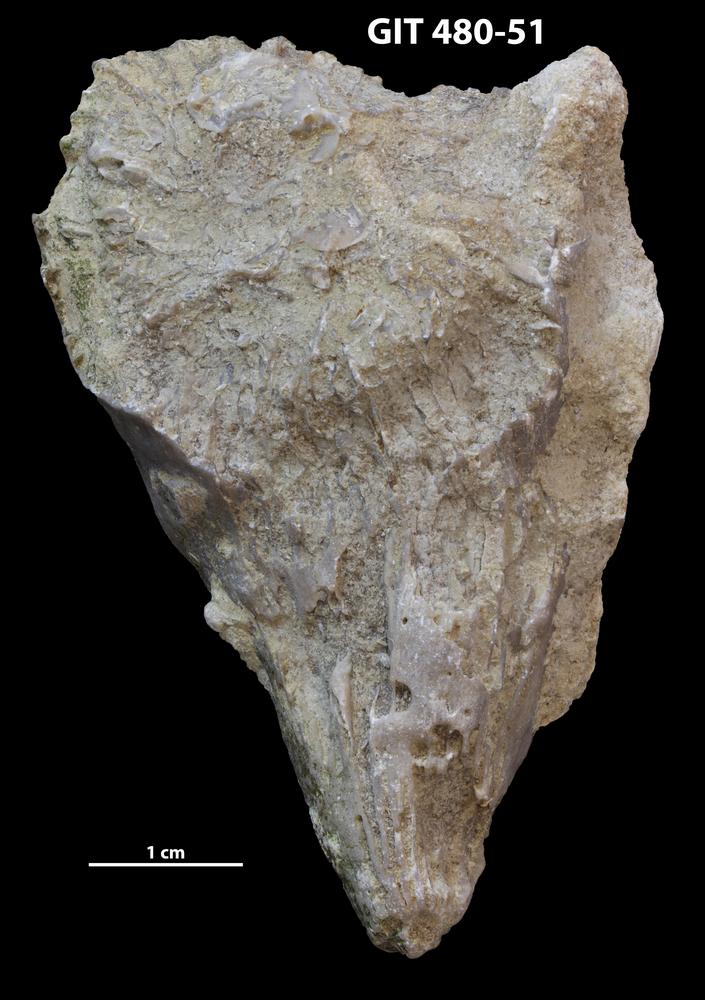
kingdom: Animalia
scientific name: Animalia
